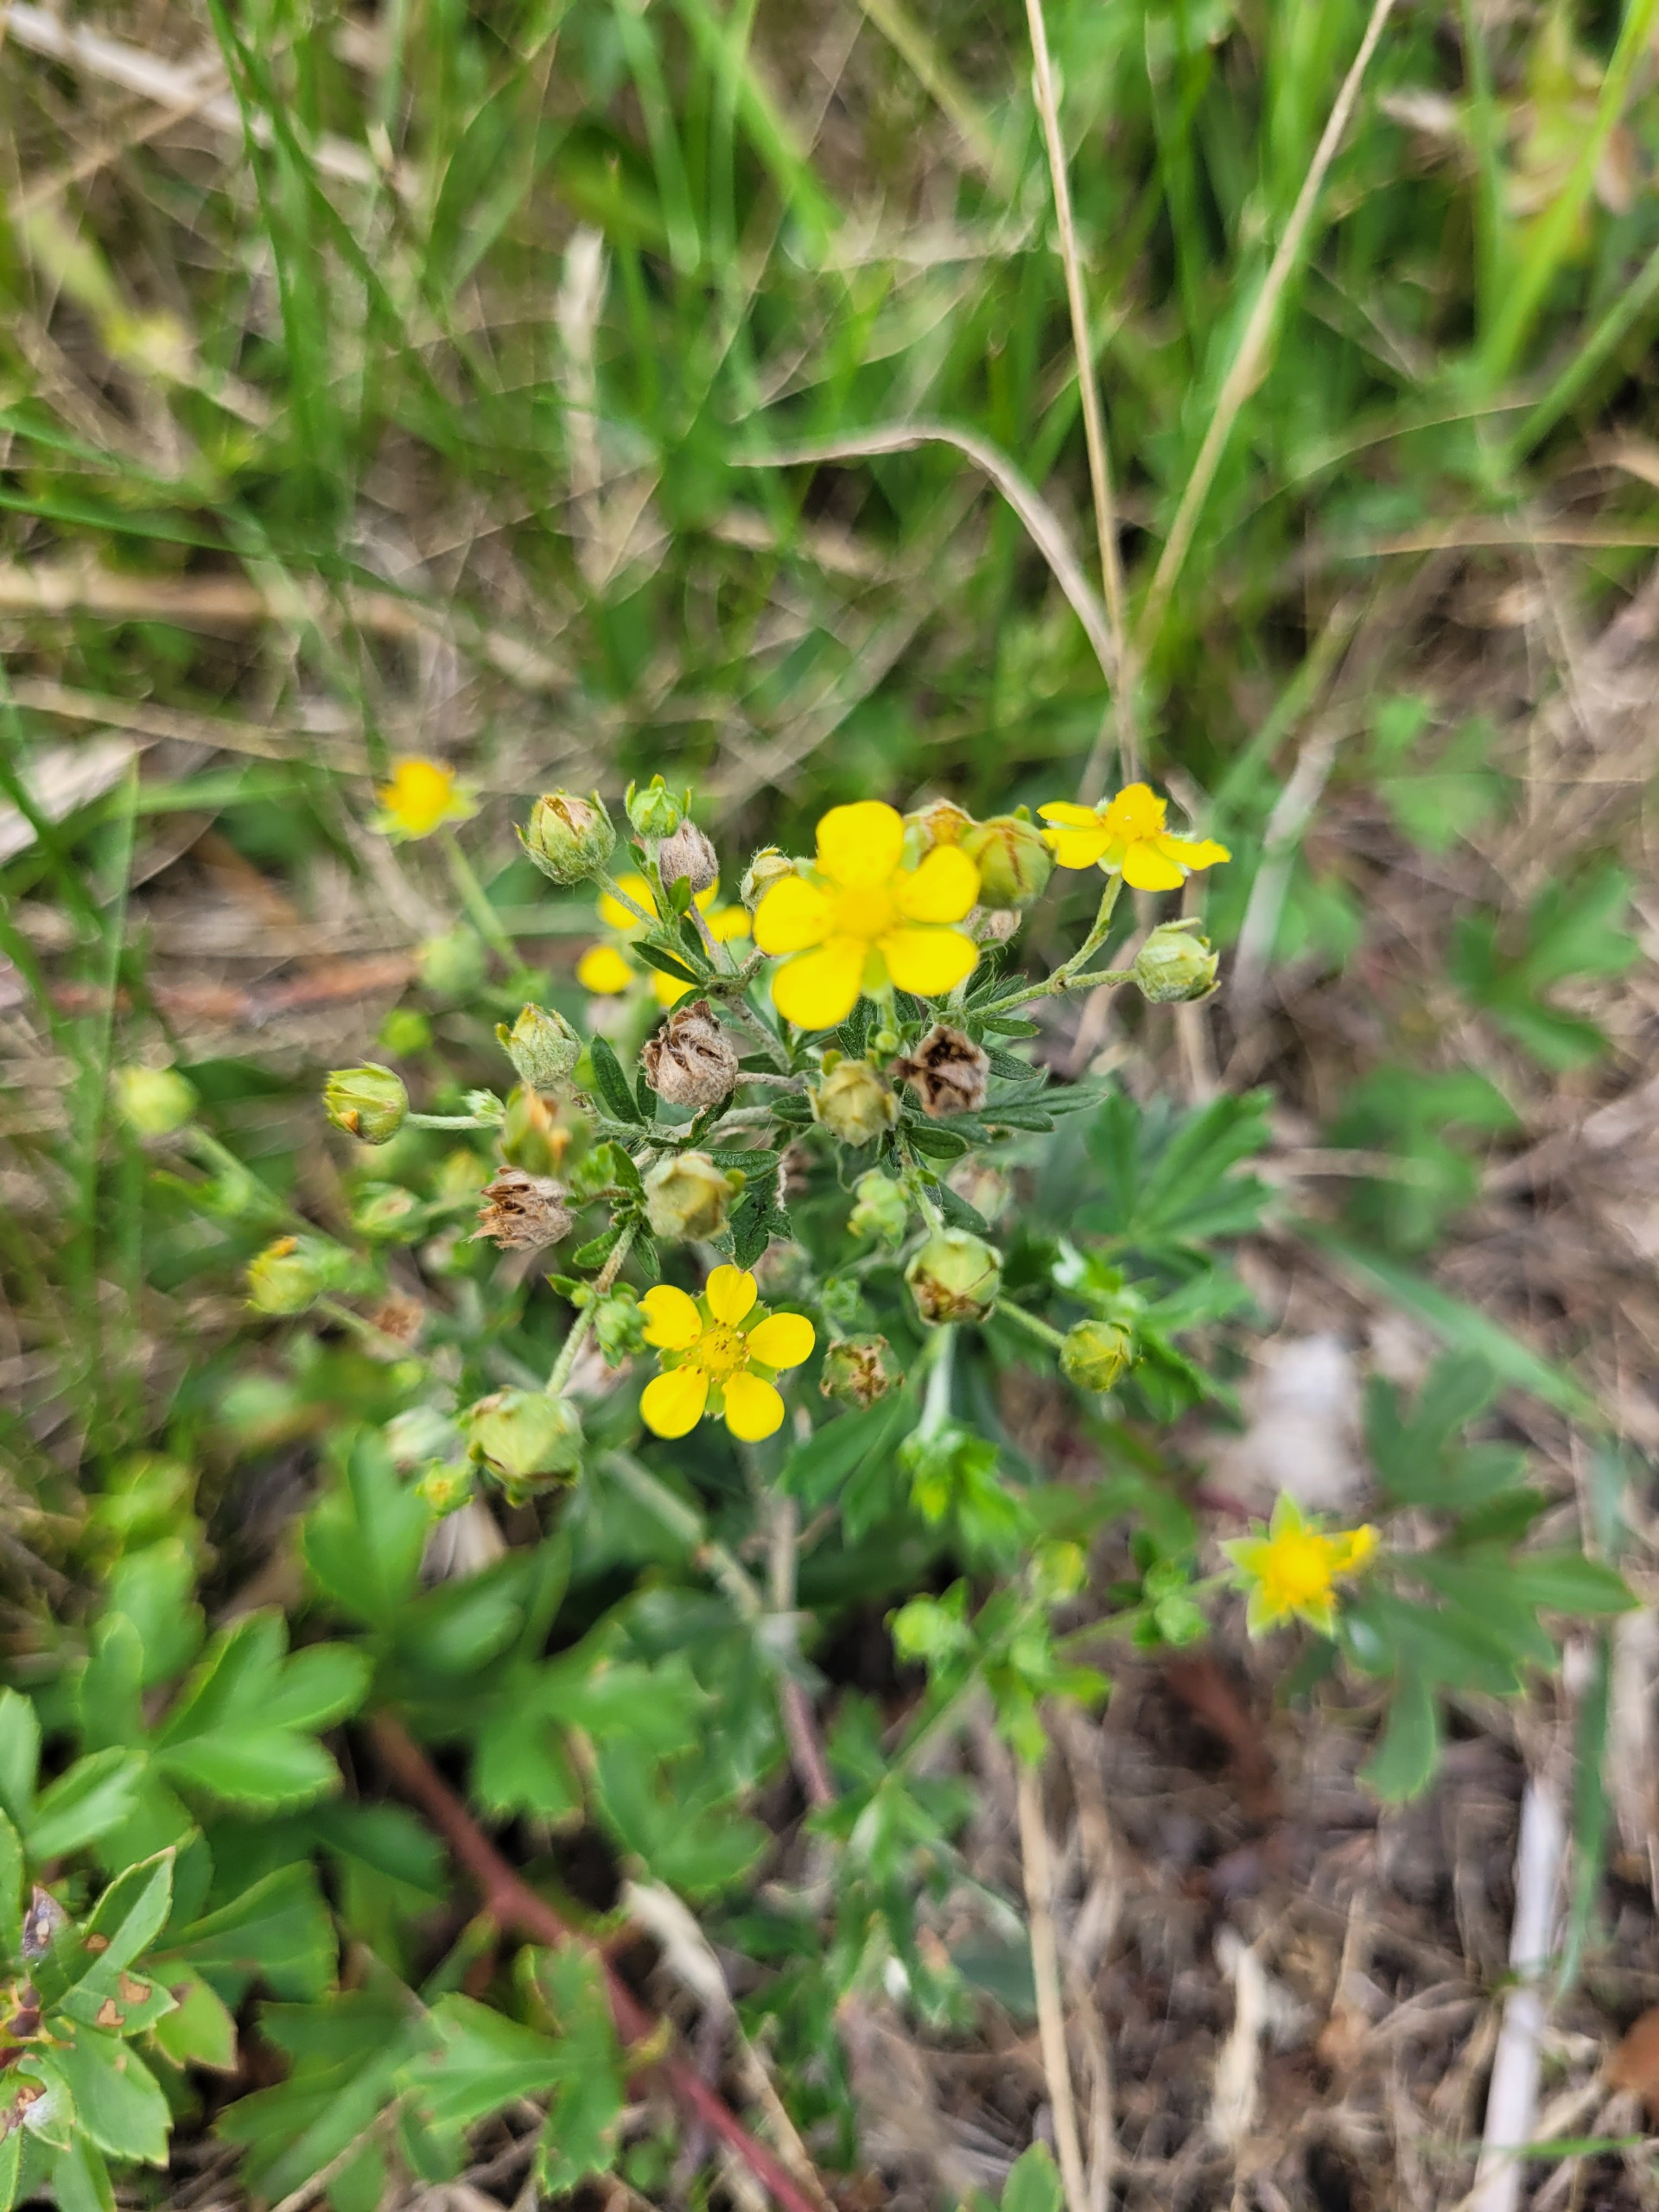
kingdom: Plantae
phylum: Tracheophyta
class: Magnoliopsida
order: Rosales
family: Rosaceae
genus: Potentilla
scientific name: Potentilla argentea
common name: Sølv-potentil
